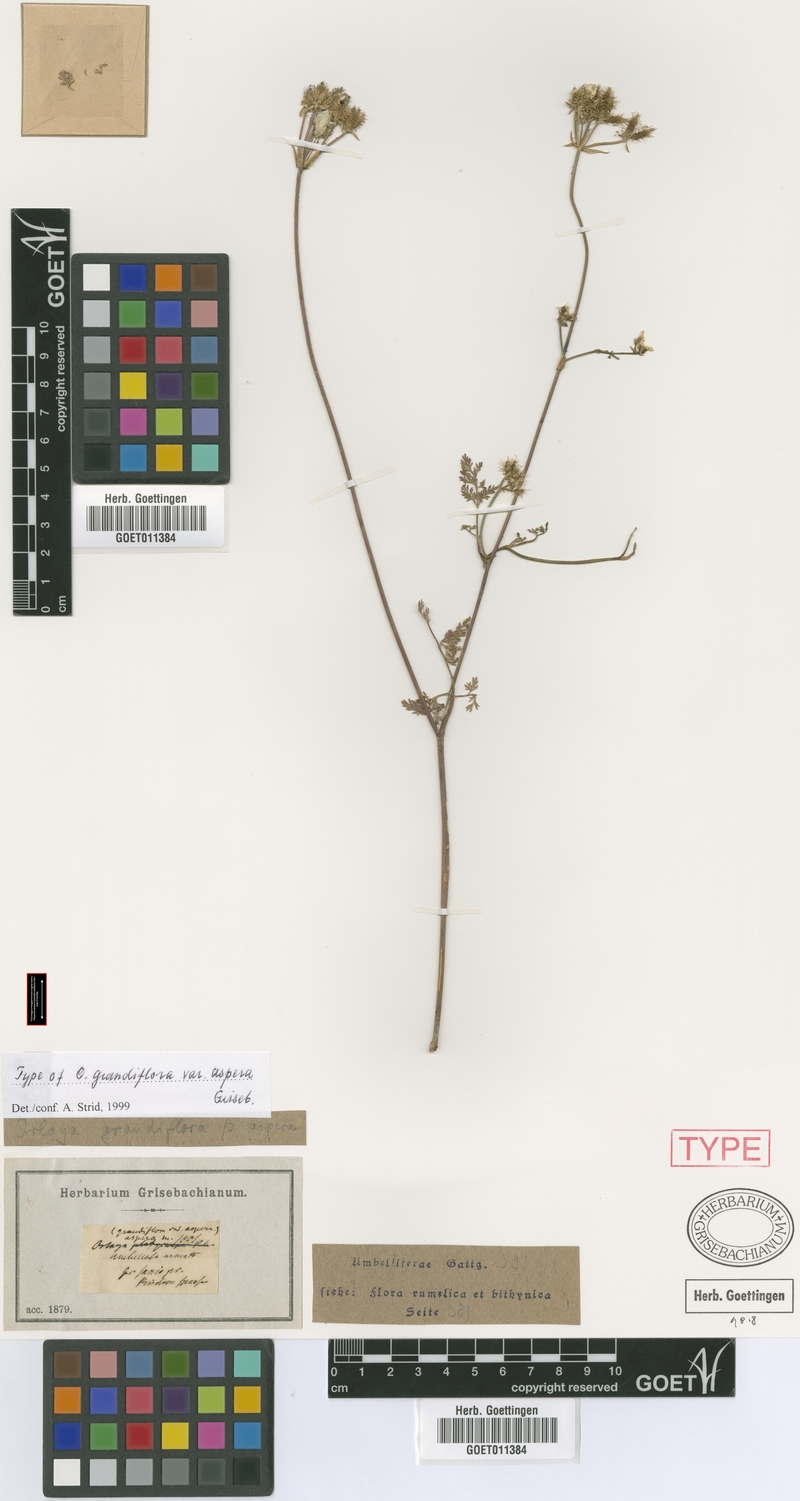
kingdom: Plantae
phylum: Tracheophyta
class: Magnoliopsida
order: Apiales
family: Apiaceae
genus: Orlaya
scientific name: Orlaya grandiflora
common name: White lace flower
